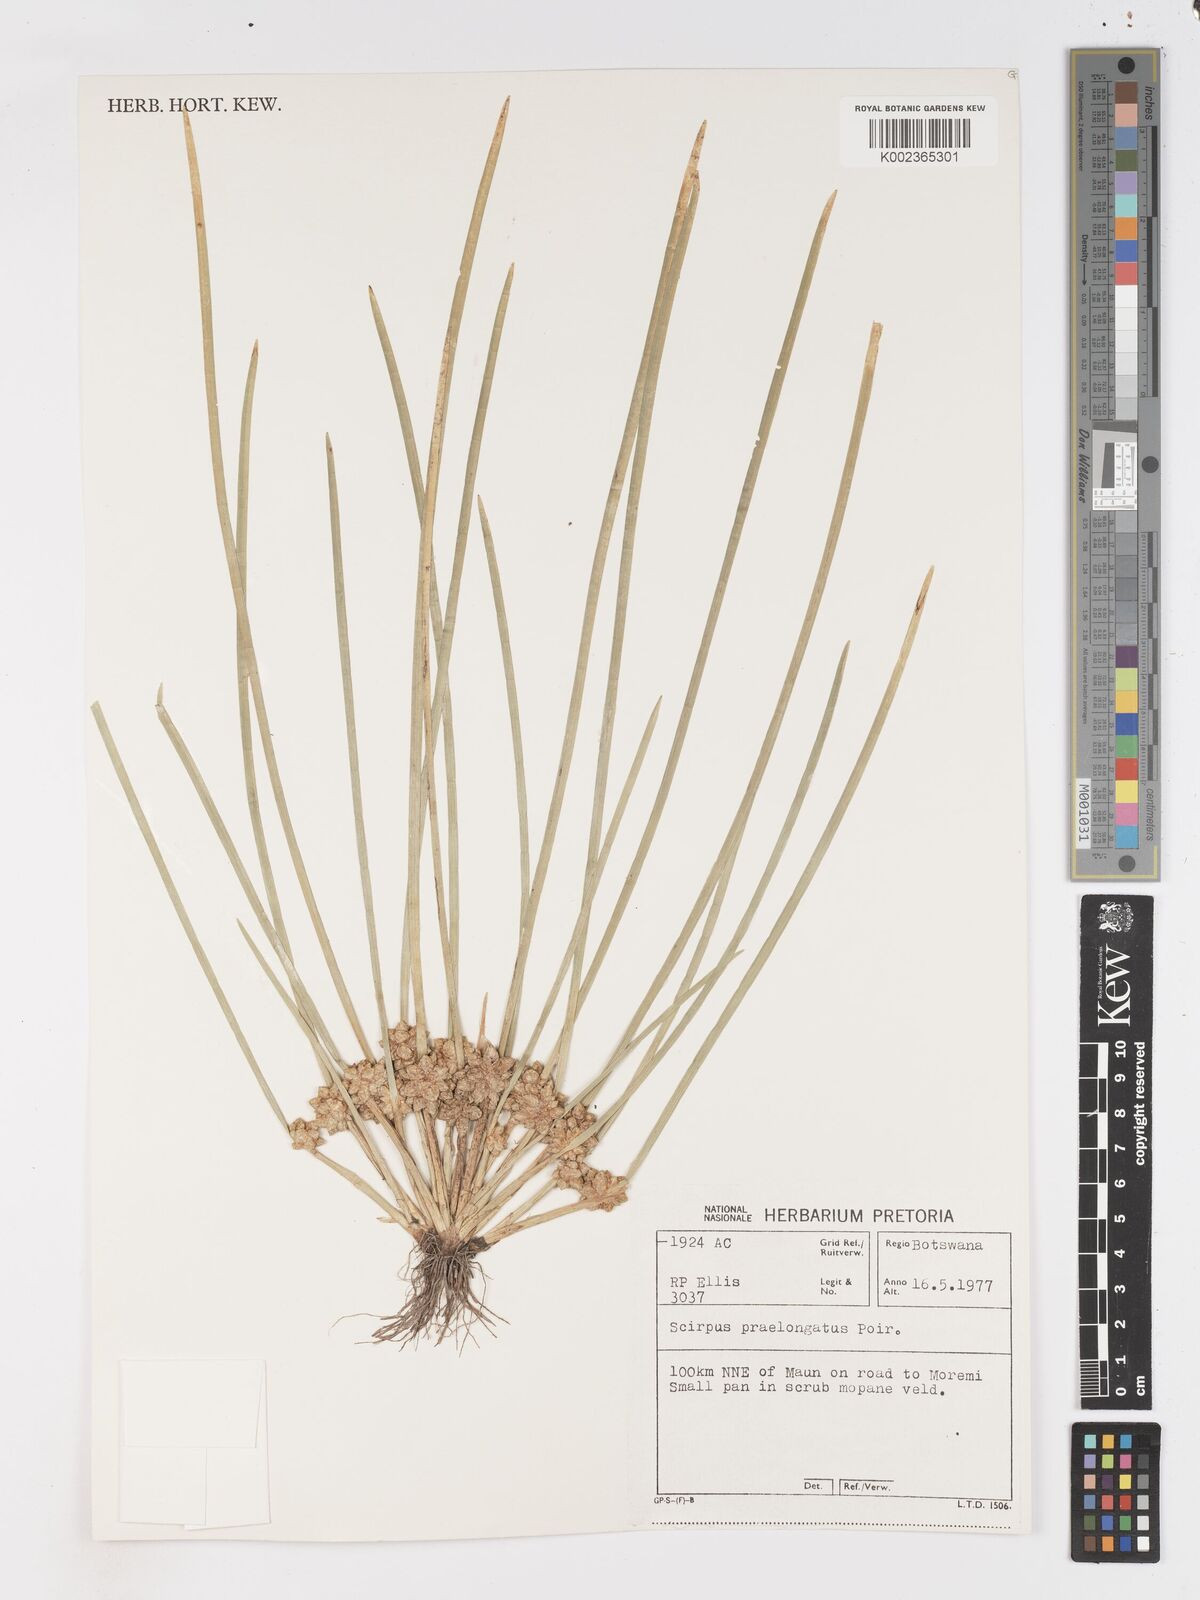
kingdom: Plantae
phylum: Tracheophyta
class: Liliopsida
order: Poales
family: Cyperaceae
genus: Schoenoplectiella
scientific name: Schoenoplectiella senegalensis
